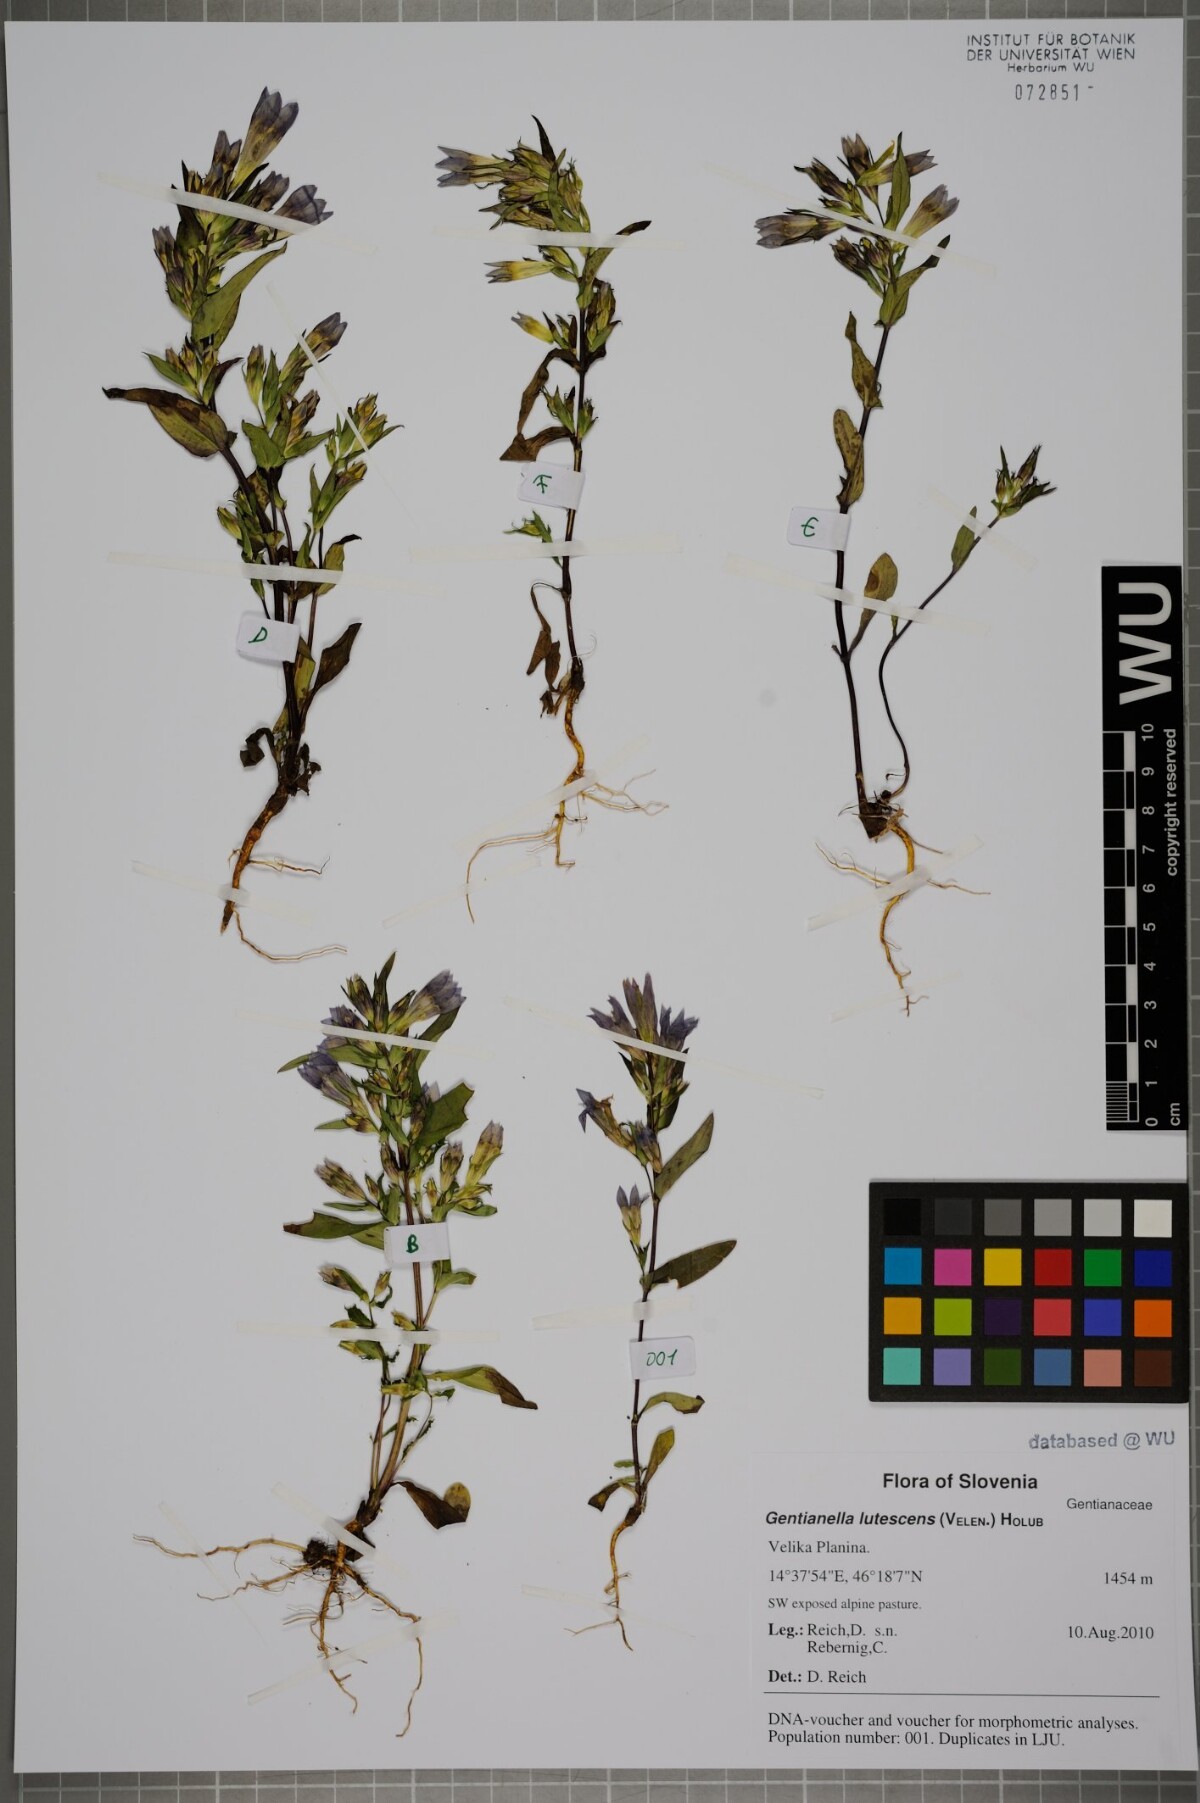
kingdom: Plantae
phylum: Tracheophyta
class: Magnoliopsida
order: Gentianales
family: Gentianaceae
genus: Gentianella
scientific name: Gentianella praecox
